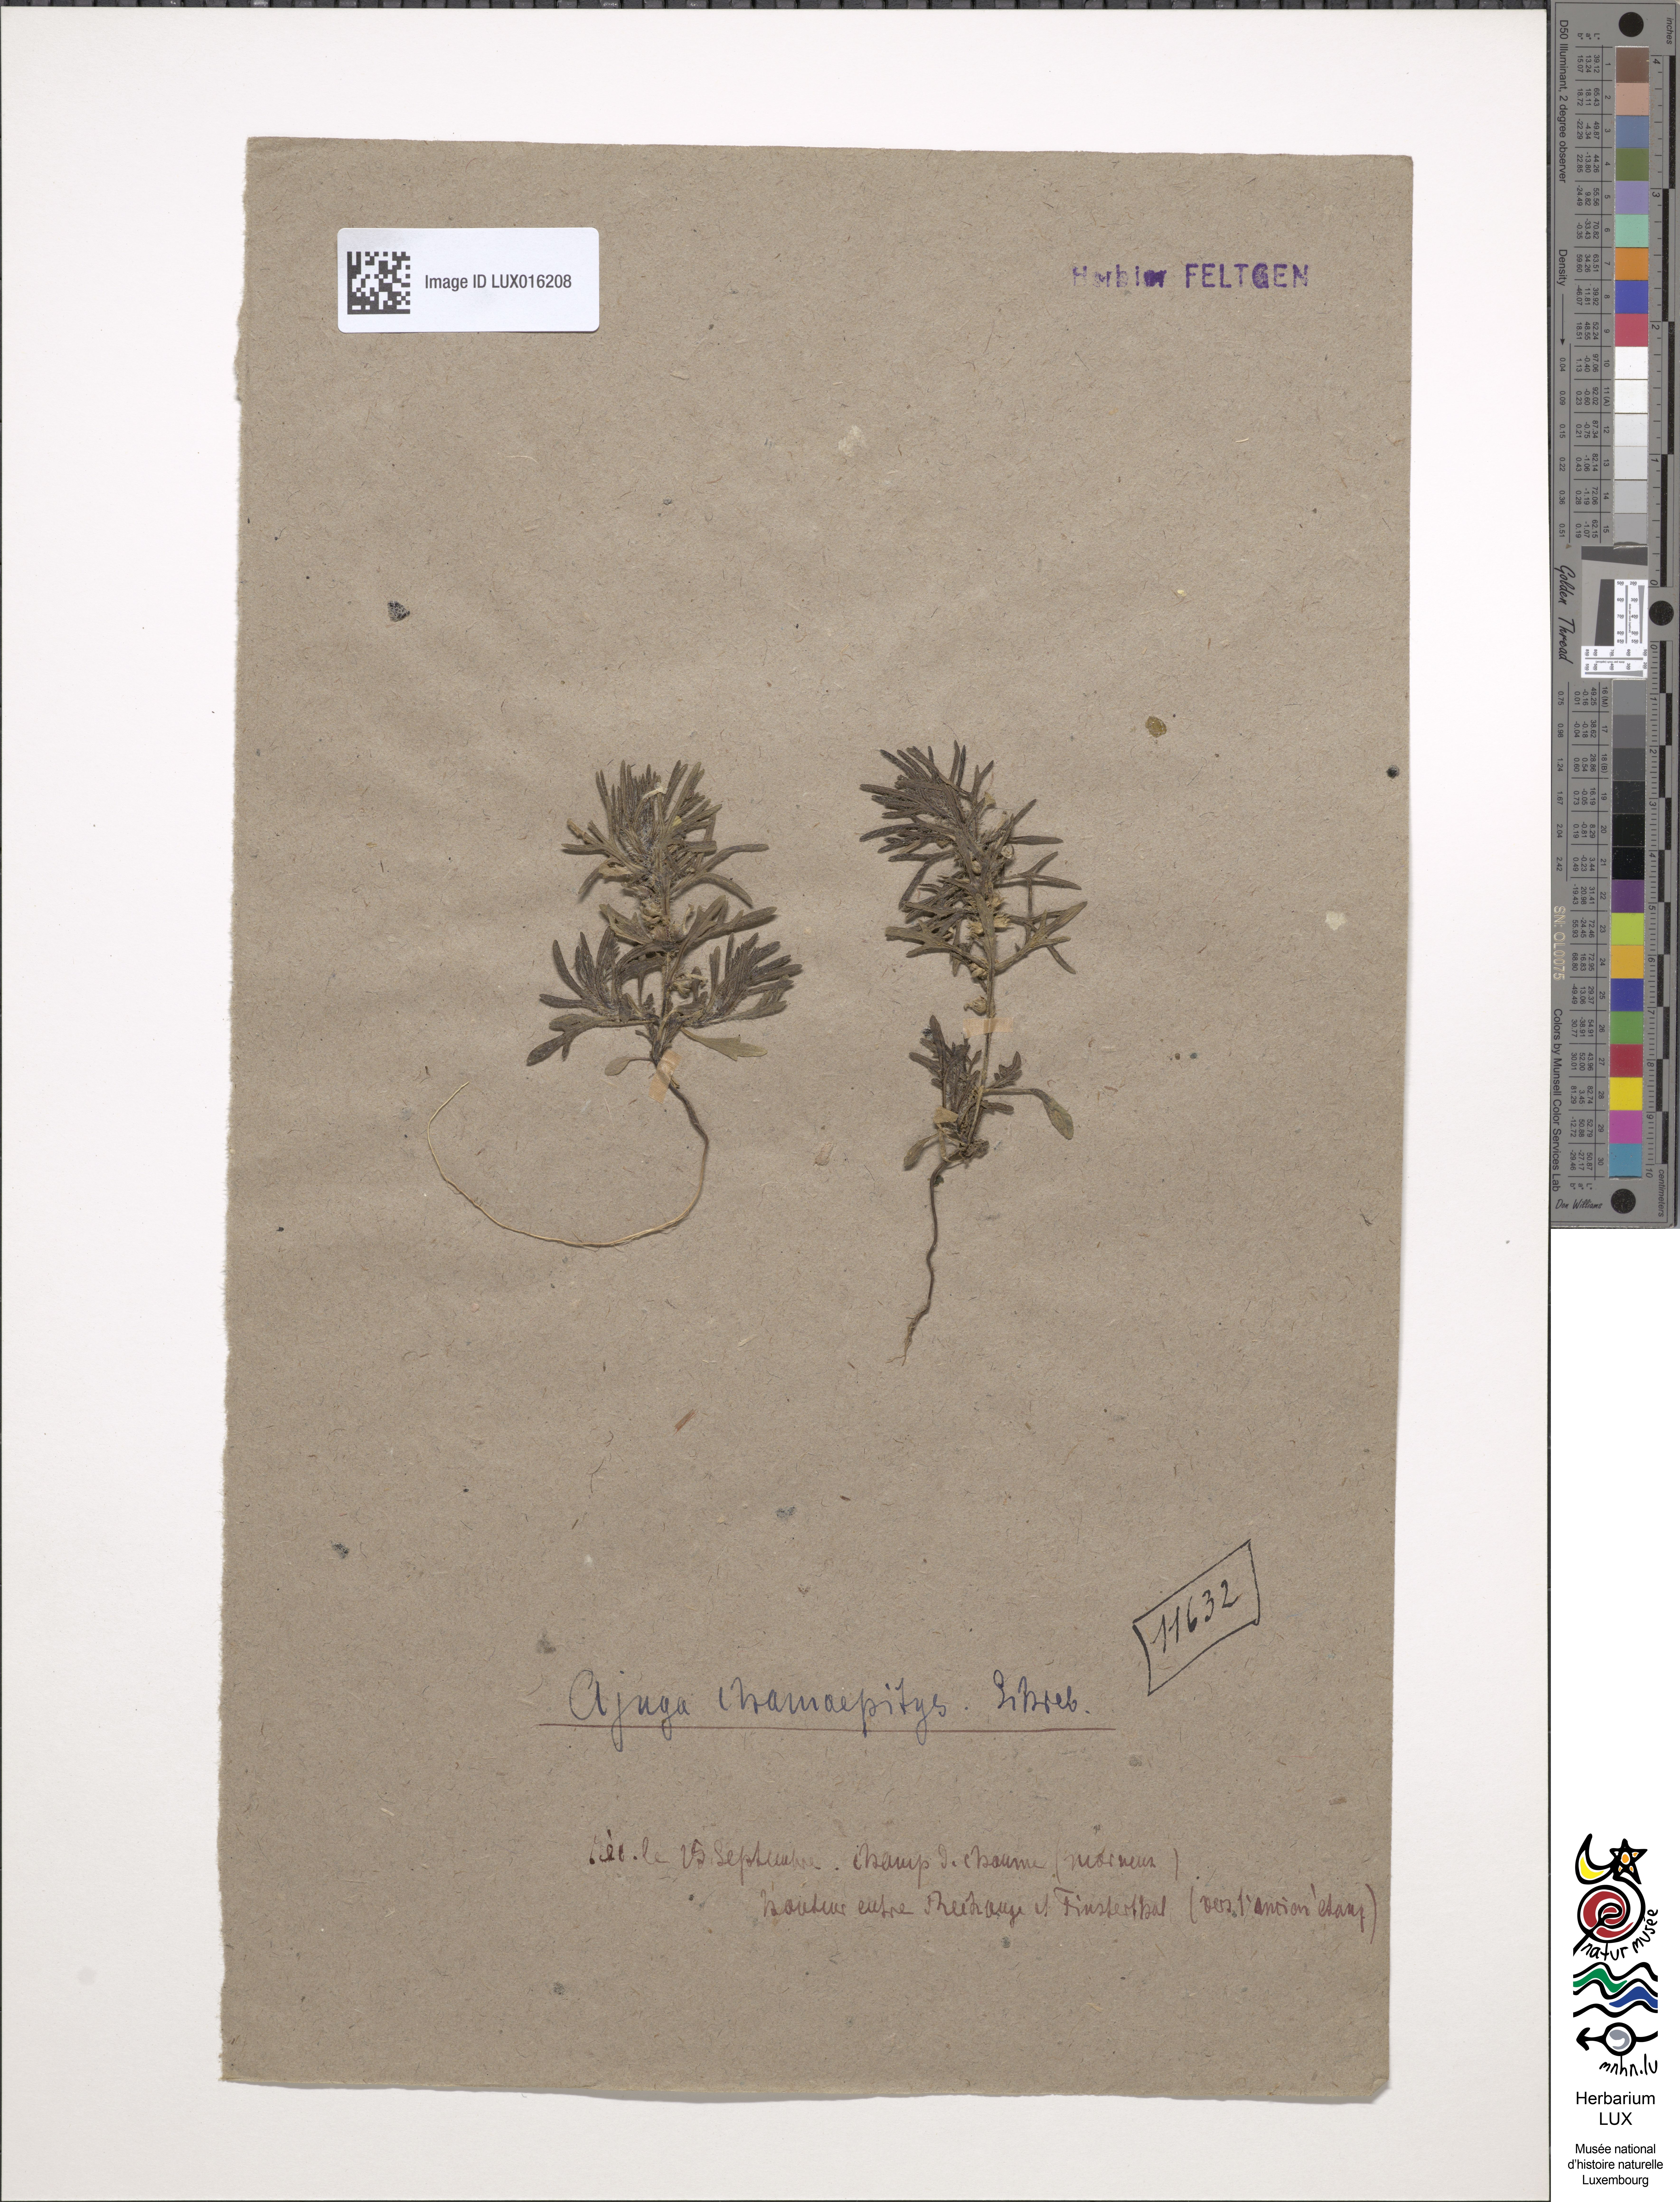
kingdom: Plantae
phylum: Tracheophyta
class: Magnoliopsida
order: Lamiales
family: Lamiaceae
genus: Ajuga
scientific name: Ajuga chamaepitys
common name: Ground-pine
